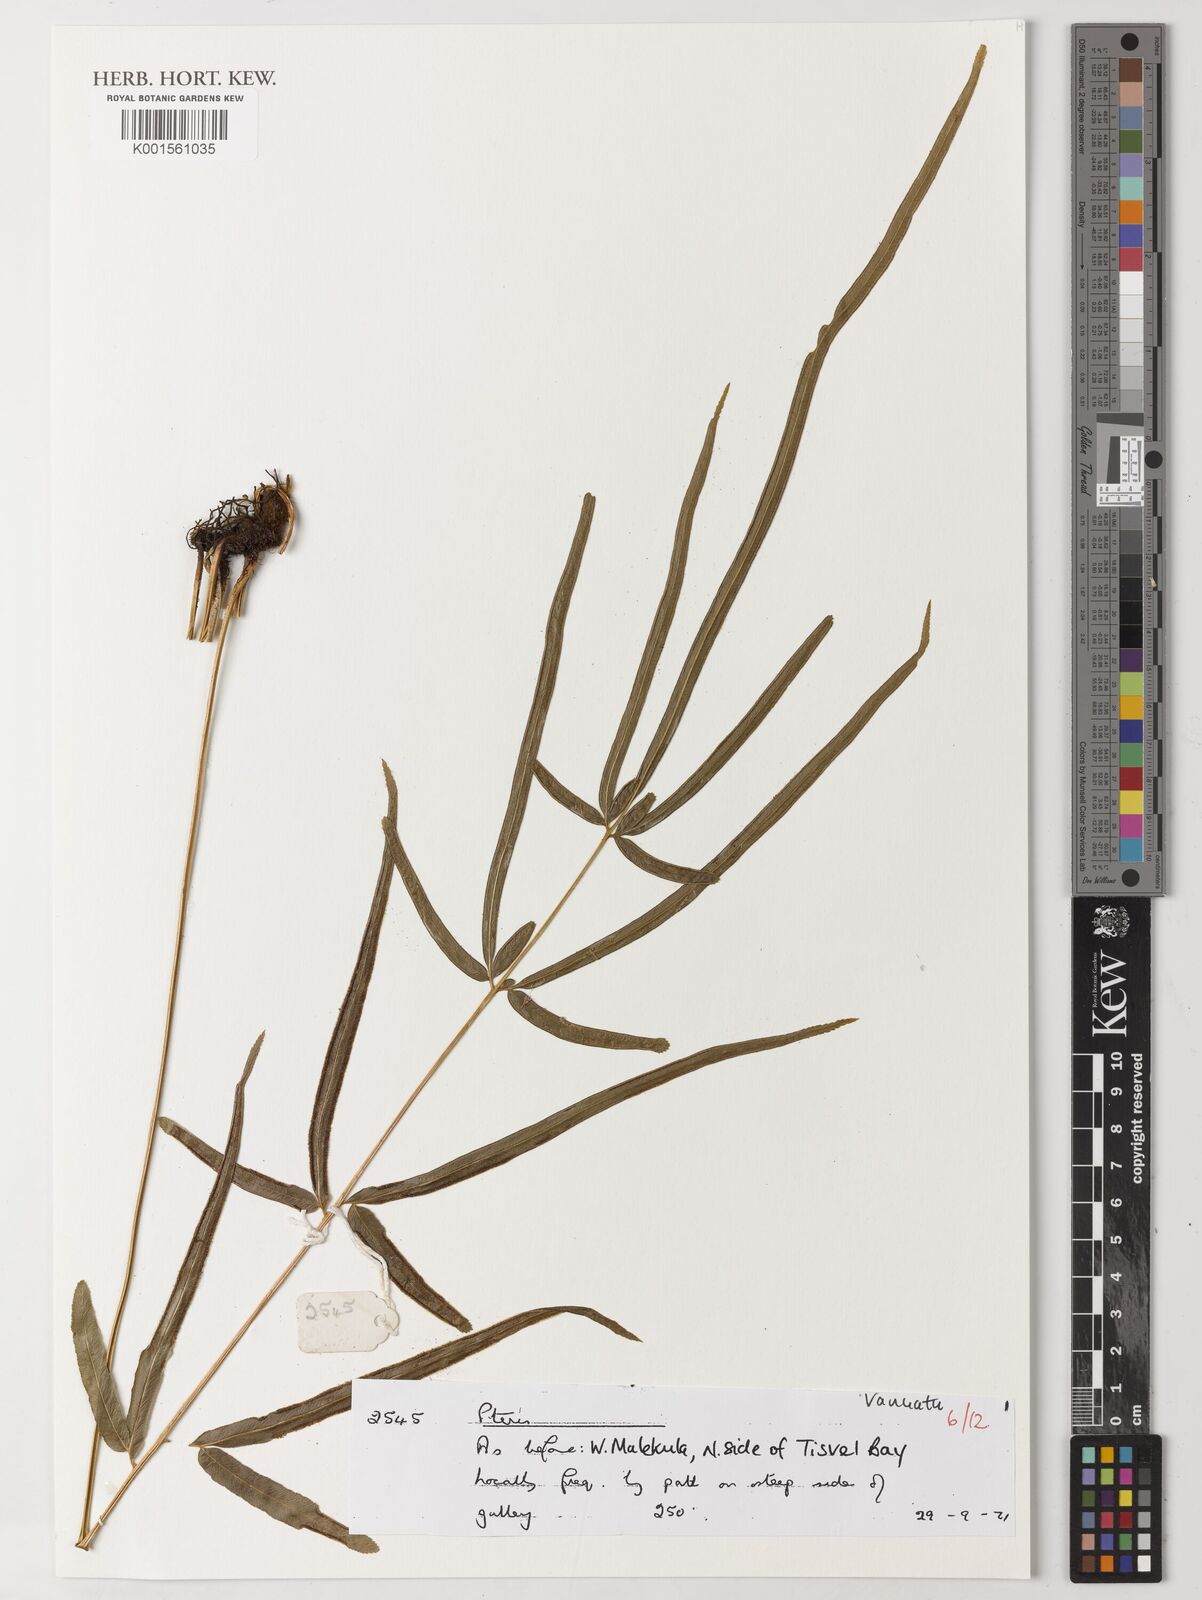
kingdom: Plantae
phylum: Tracheophyta
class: Polypodiopsida
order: Polypodiales
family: Pteridaceae
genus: Pteris
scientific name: Pteris
